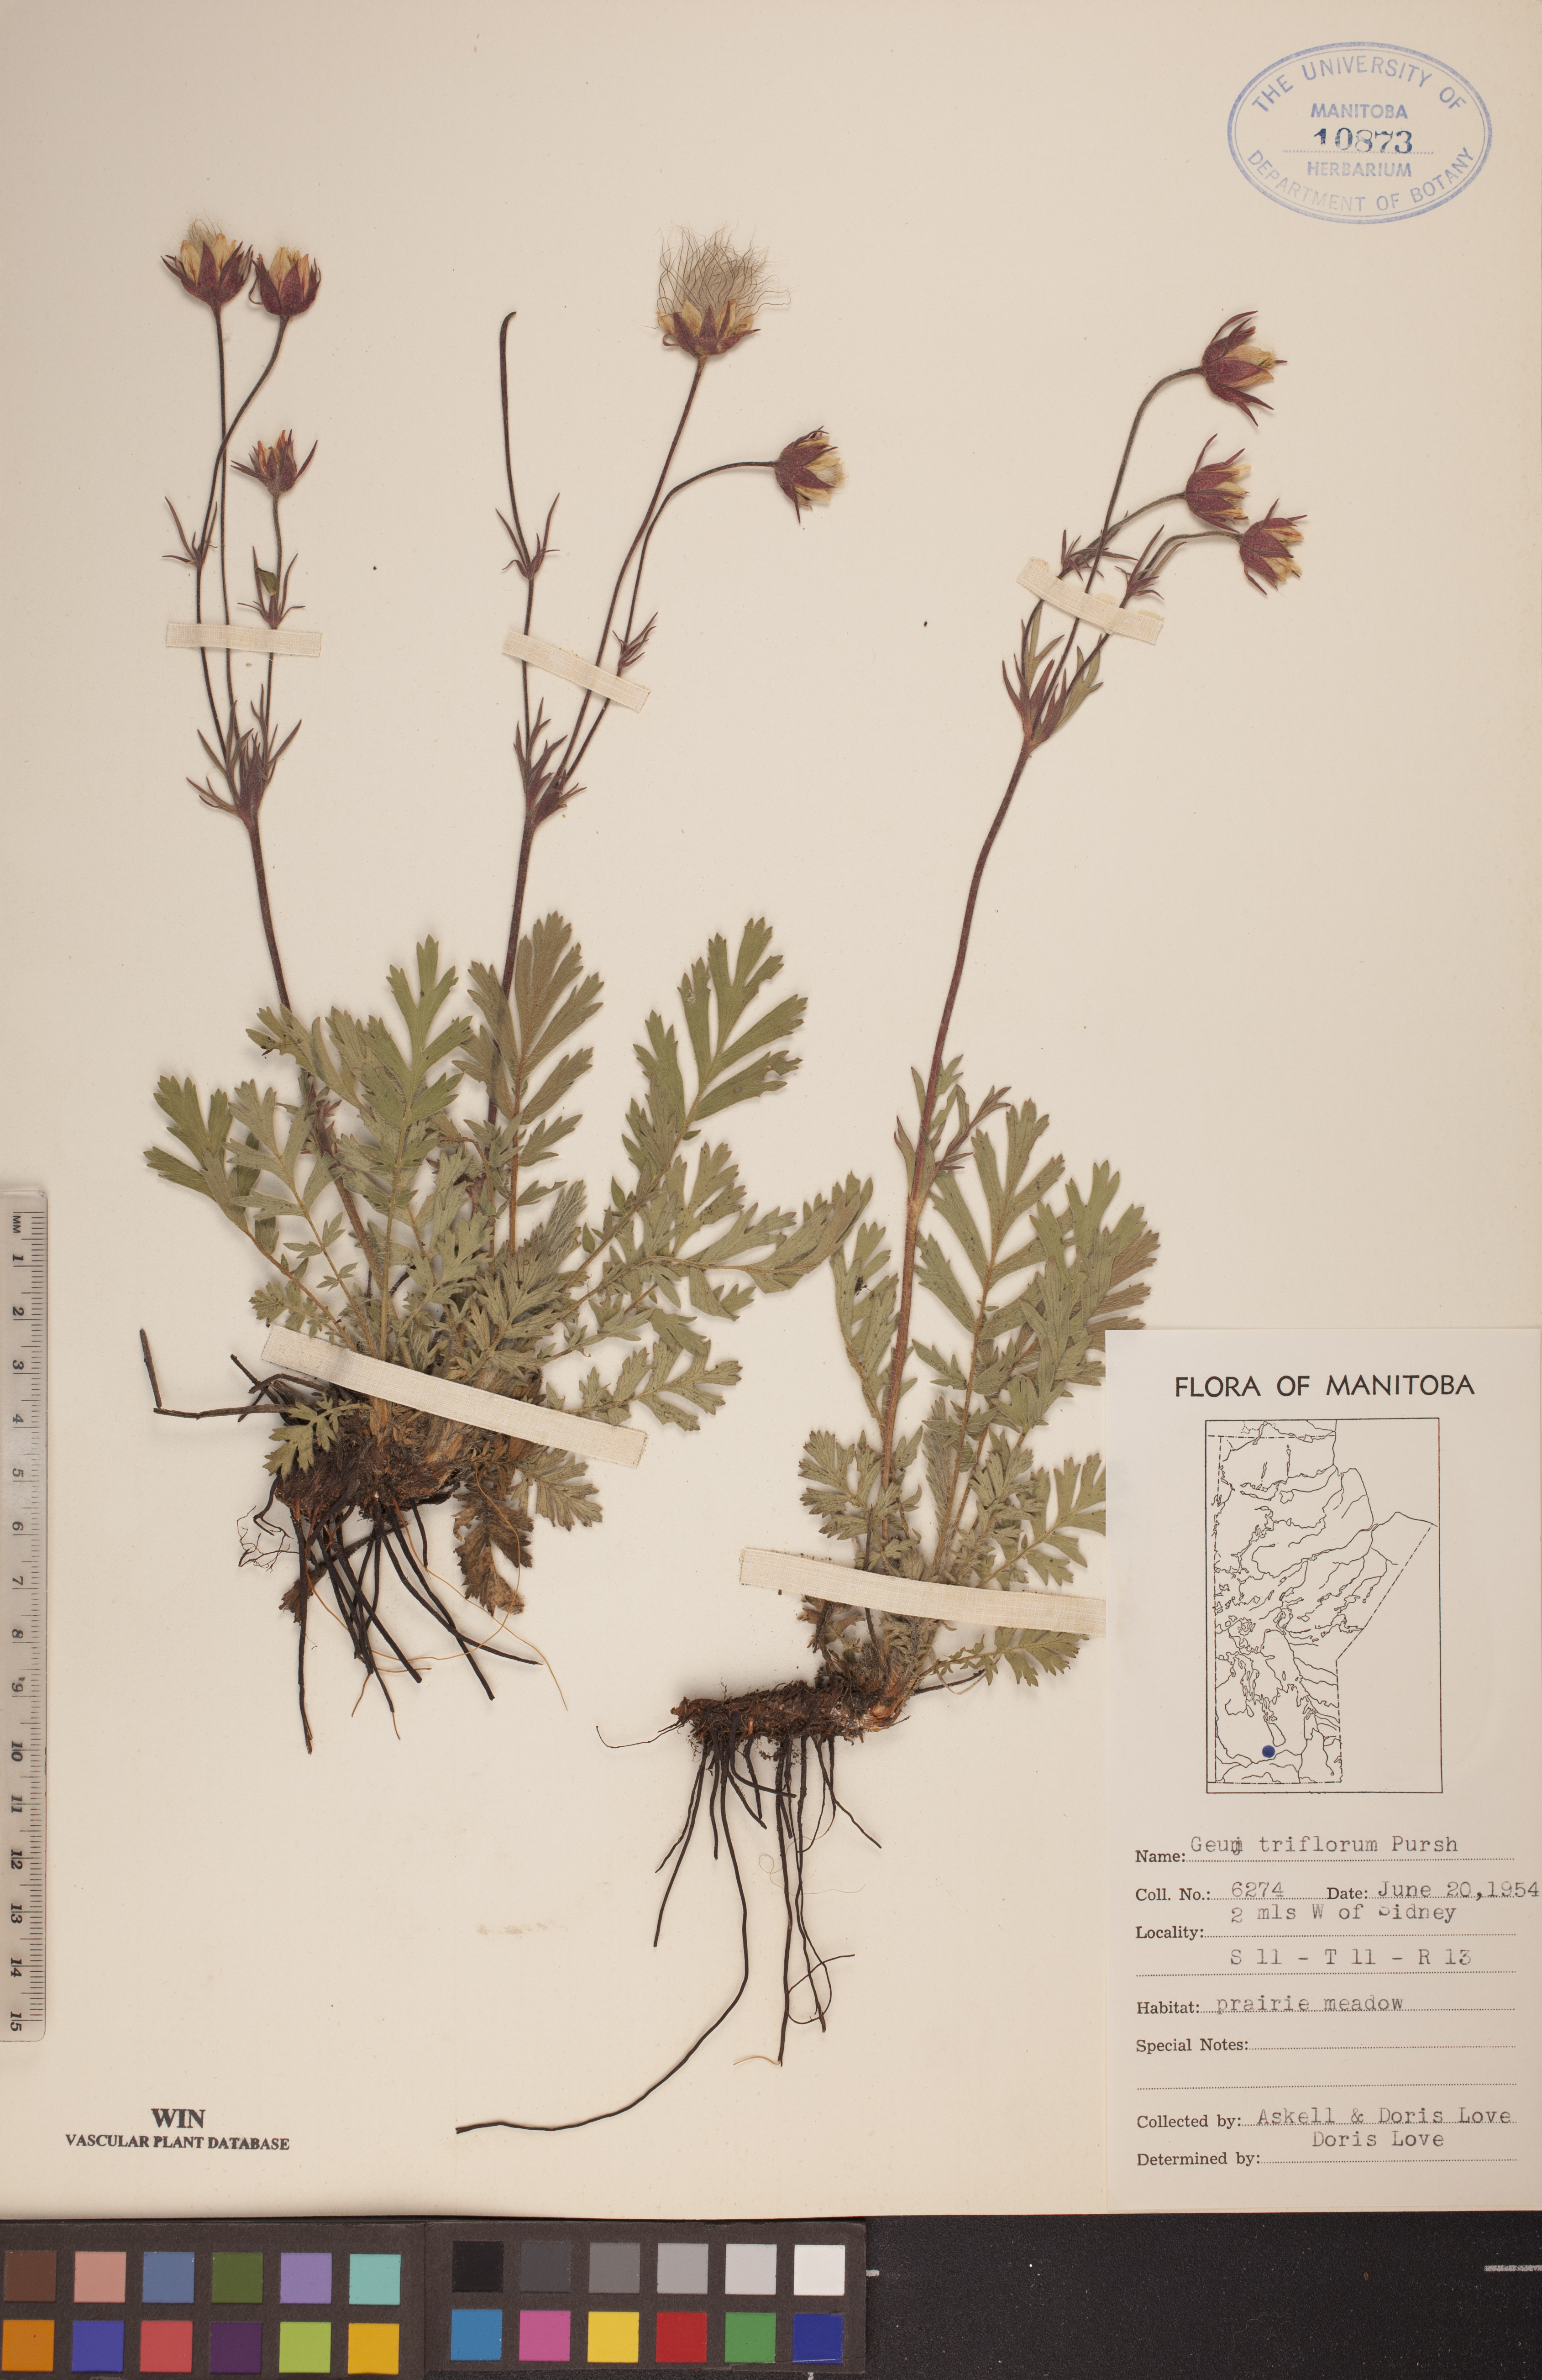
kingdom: Plantae
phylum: Tracheophyta
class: Magnoliopsida
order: Rosales
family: Rosaceae
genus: Geum
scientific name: Geum triflorum
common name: Old man's whiskers
